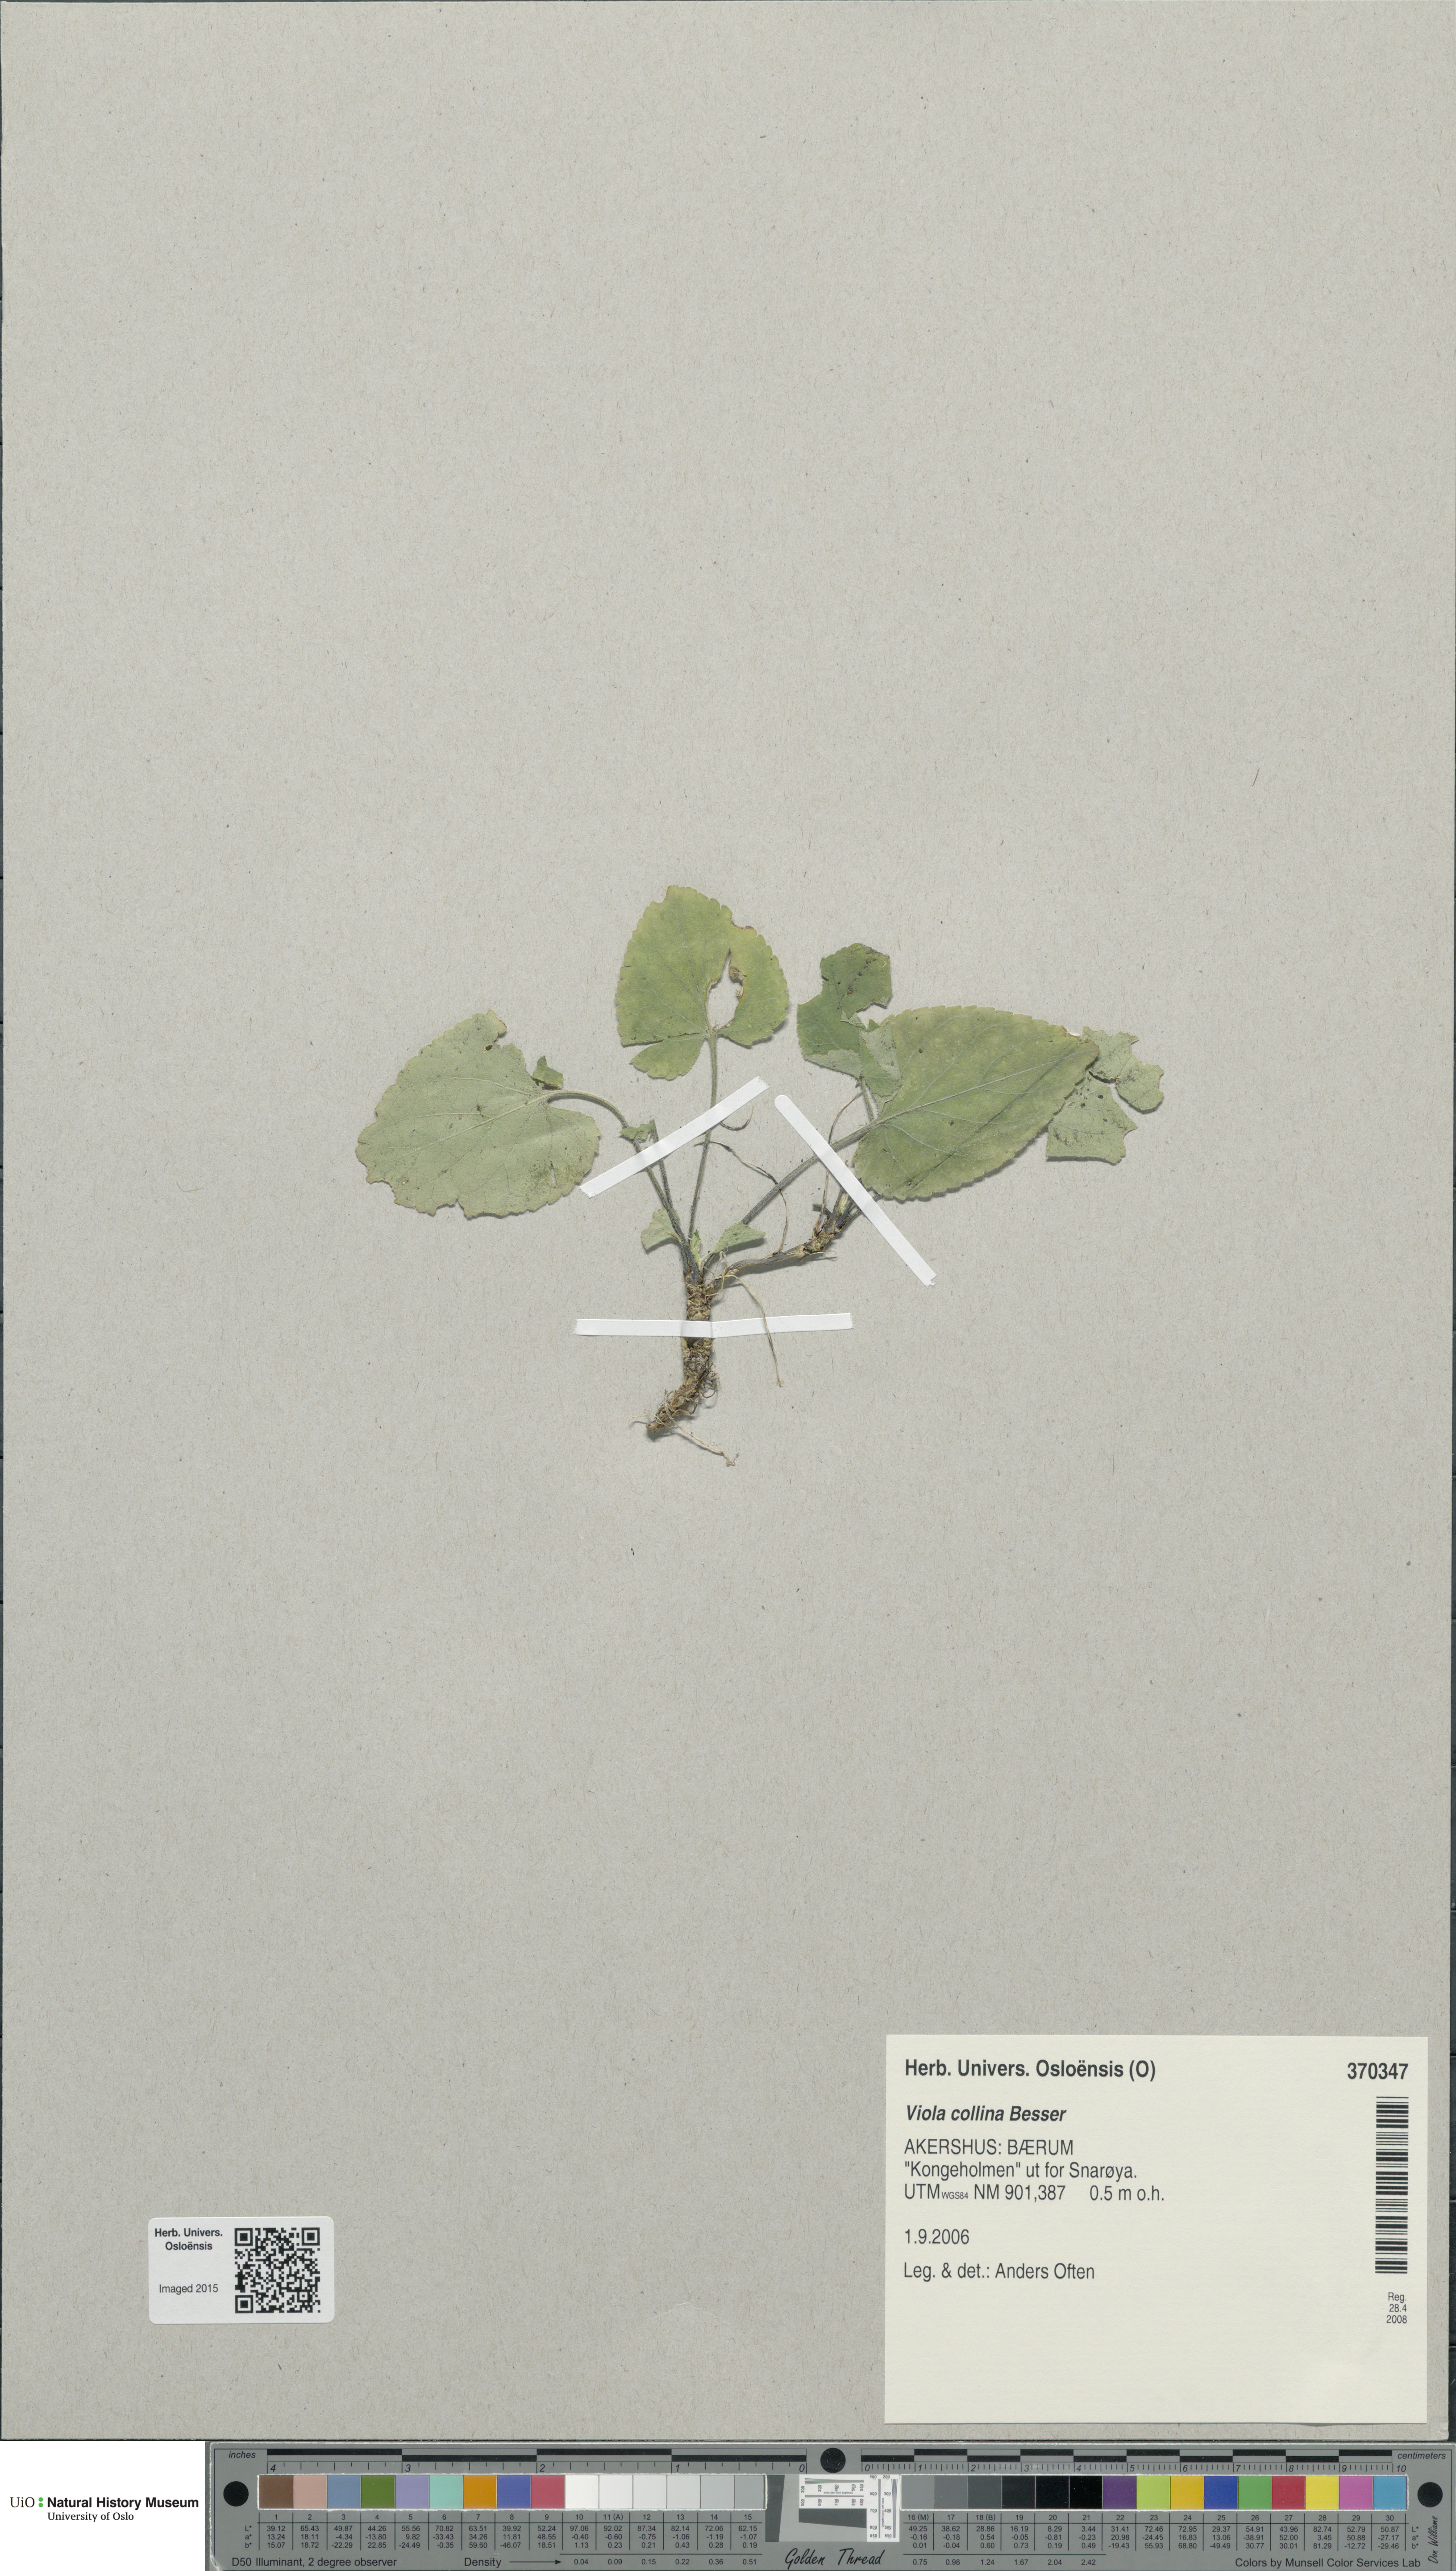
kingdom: Plantae
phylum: Tracheophyta
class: Magnoliopsida
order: Malpighiales
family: Violaceae
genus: Viola
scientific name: Viola collina
